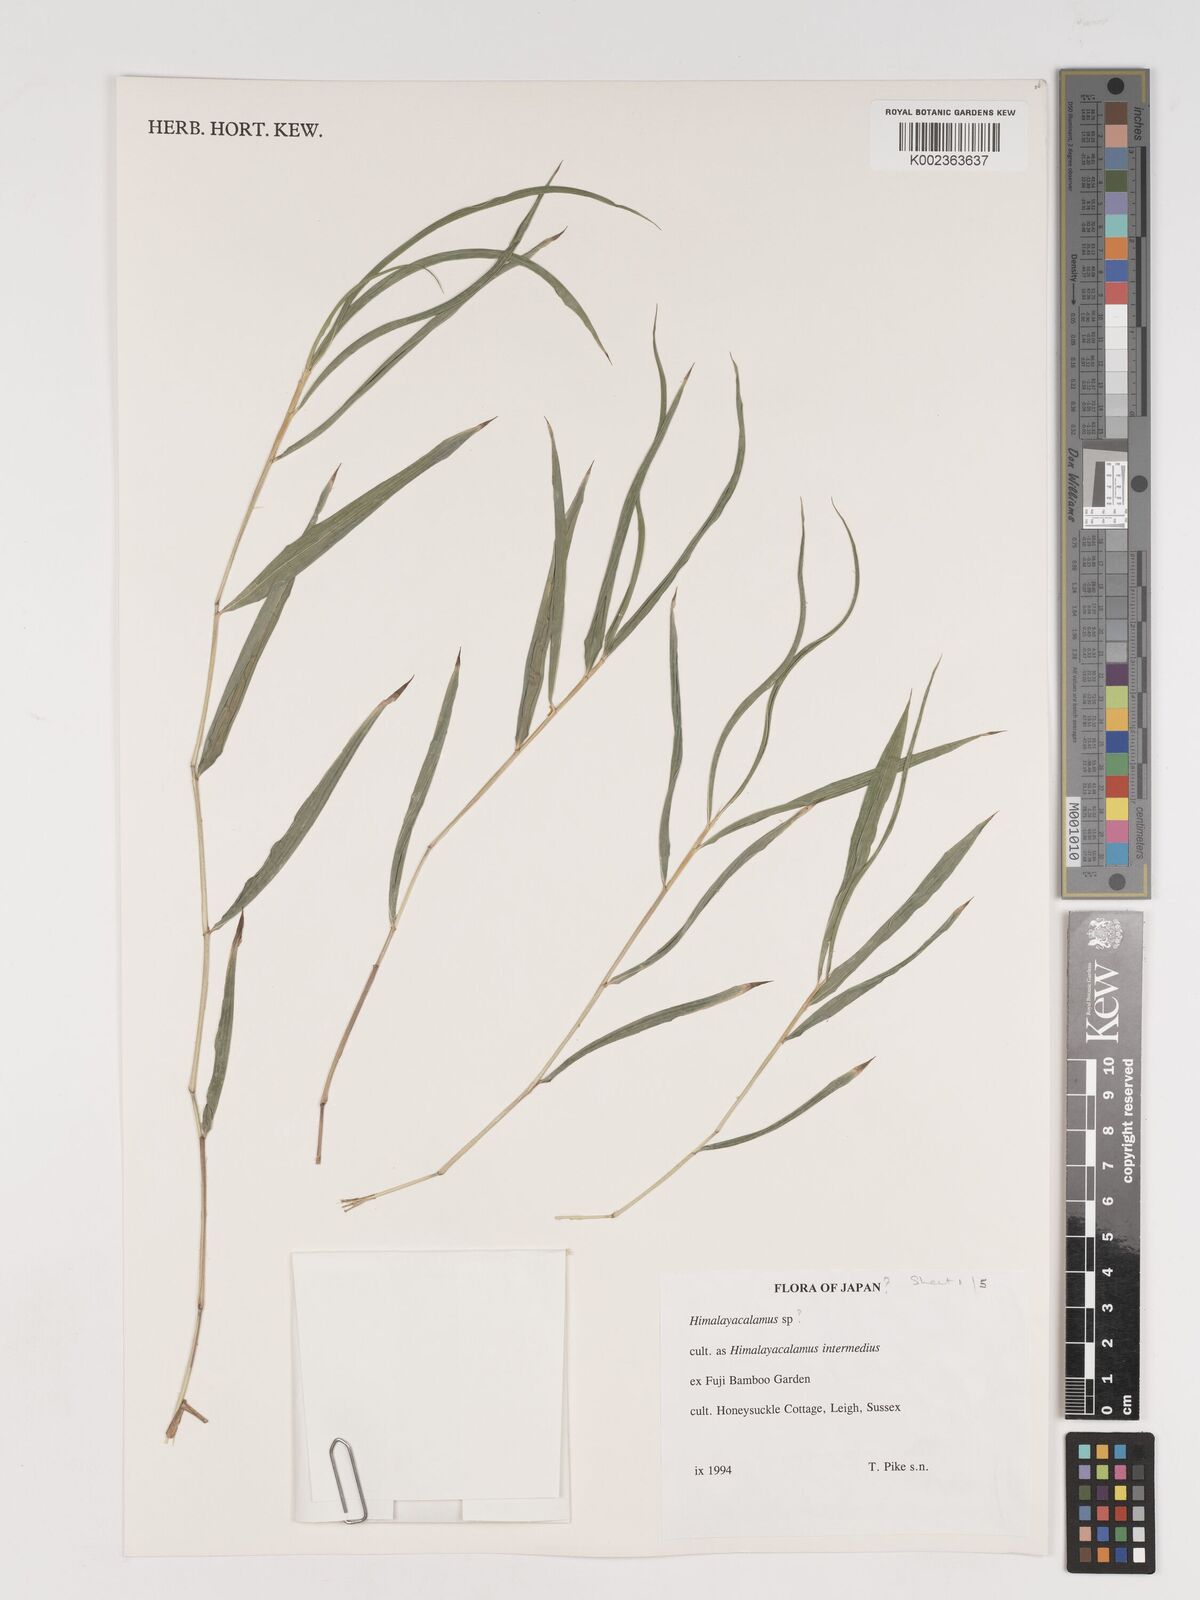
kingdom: Plantae
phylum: Tracheophyta
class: Liliopsida
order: Poales
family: Poaceae
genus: Himalayacalamus
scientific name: Himalayacalamus
